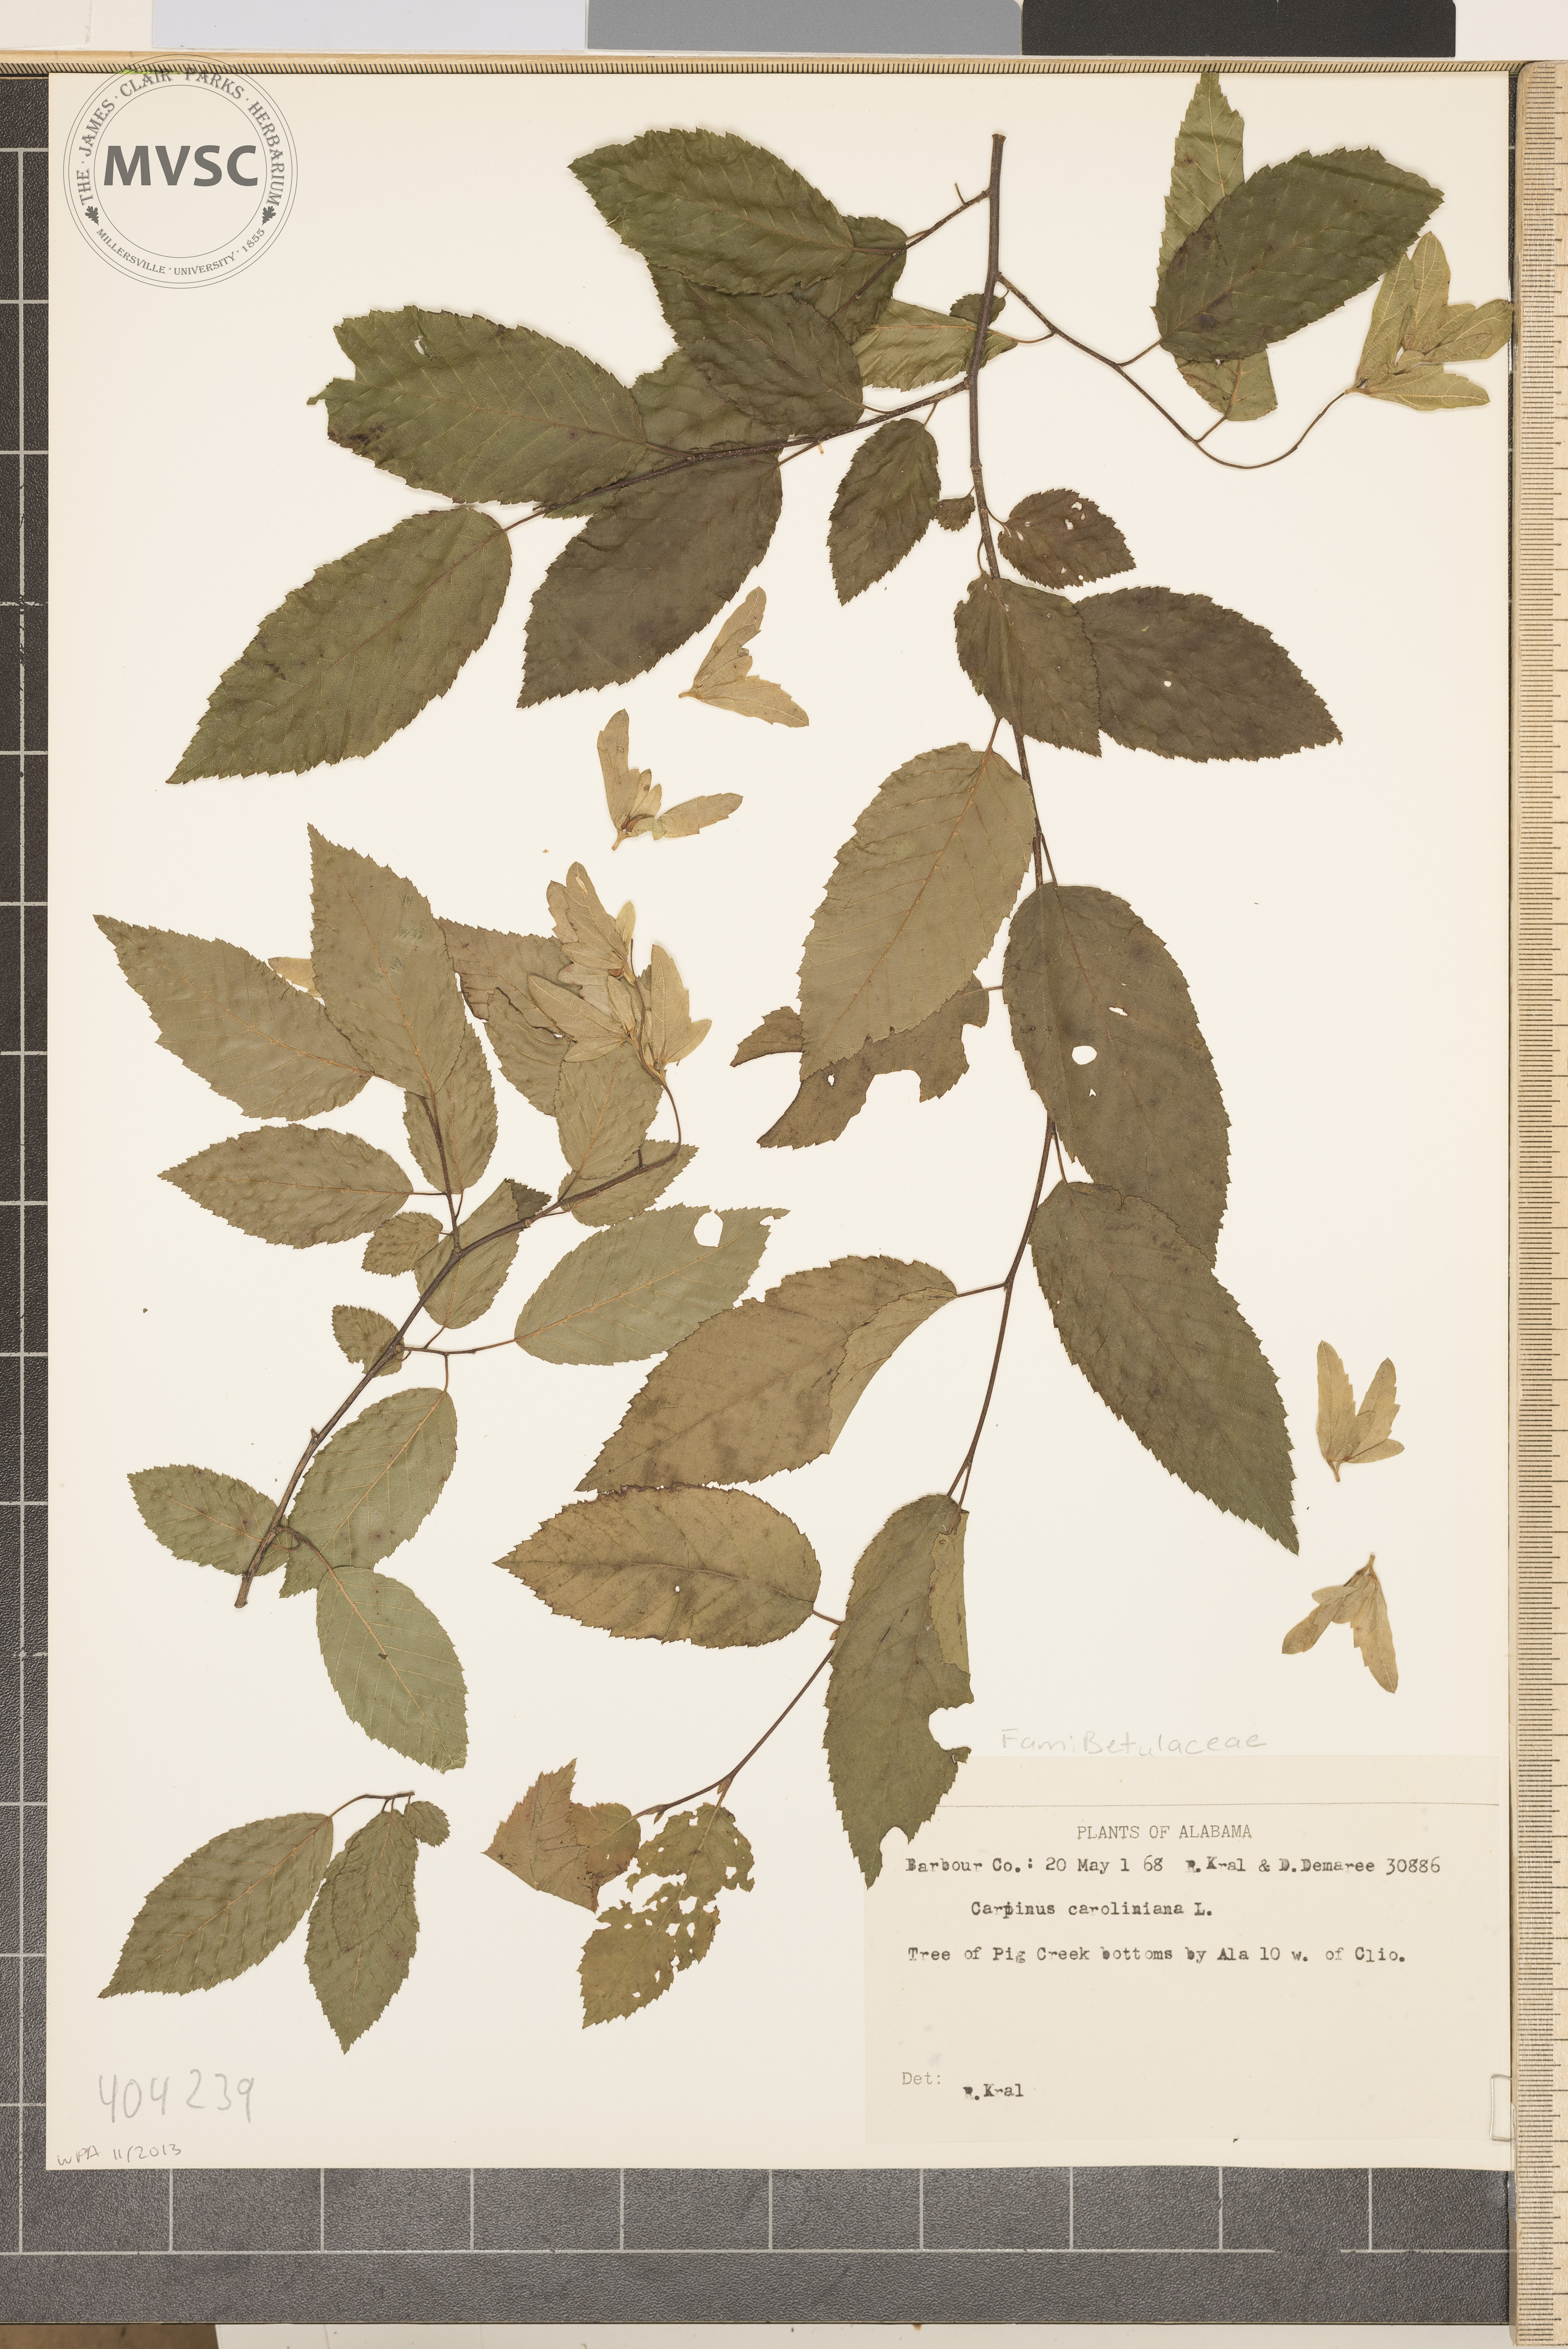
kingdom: Plantae
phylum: Tracheophyta
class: Magnoliopsida
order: Fagales
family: Betulaceae
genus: Carpinus
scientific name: Carpinus caroliniana
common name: American hornbeam
